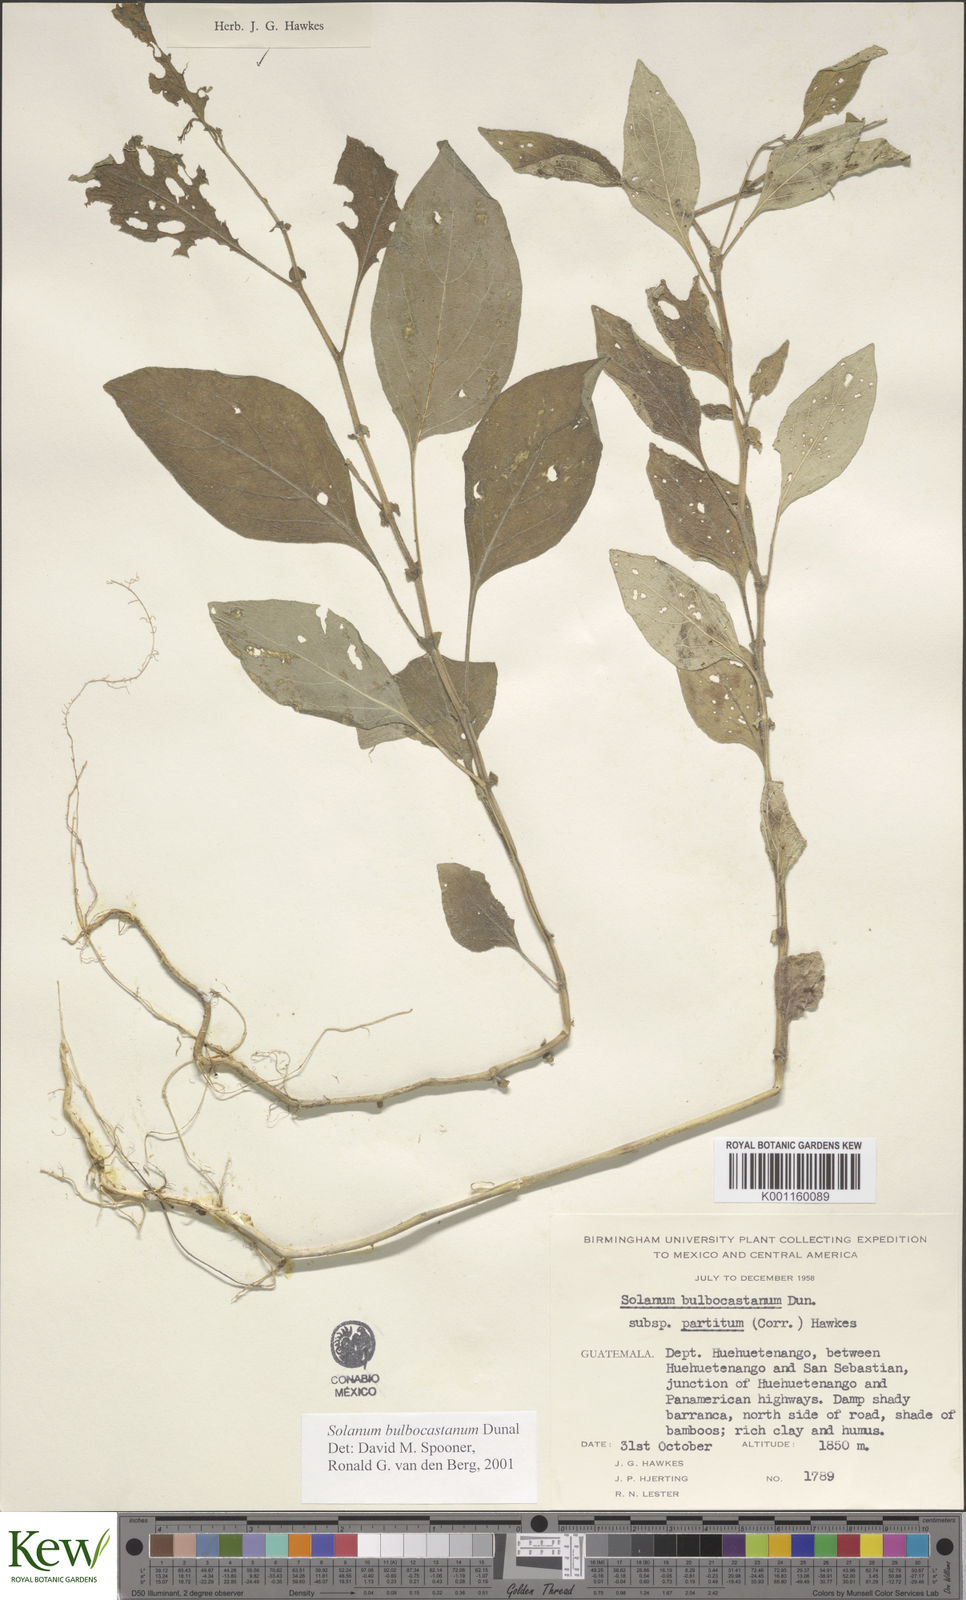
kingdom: Plantae
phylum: Tracheophyta
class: Magnoliopsida
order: Solanales
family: Solanaceae
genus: Solanum
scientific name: Solanum bulbocastanum
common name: Ornamental nightshade
